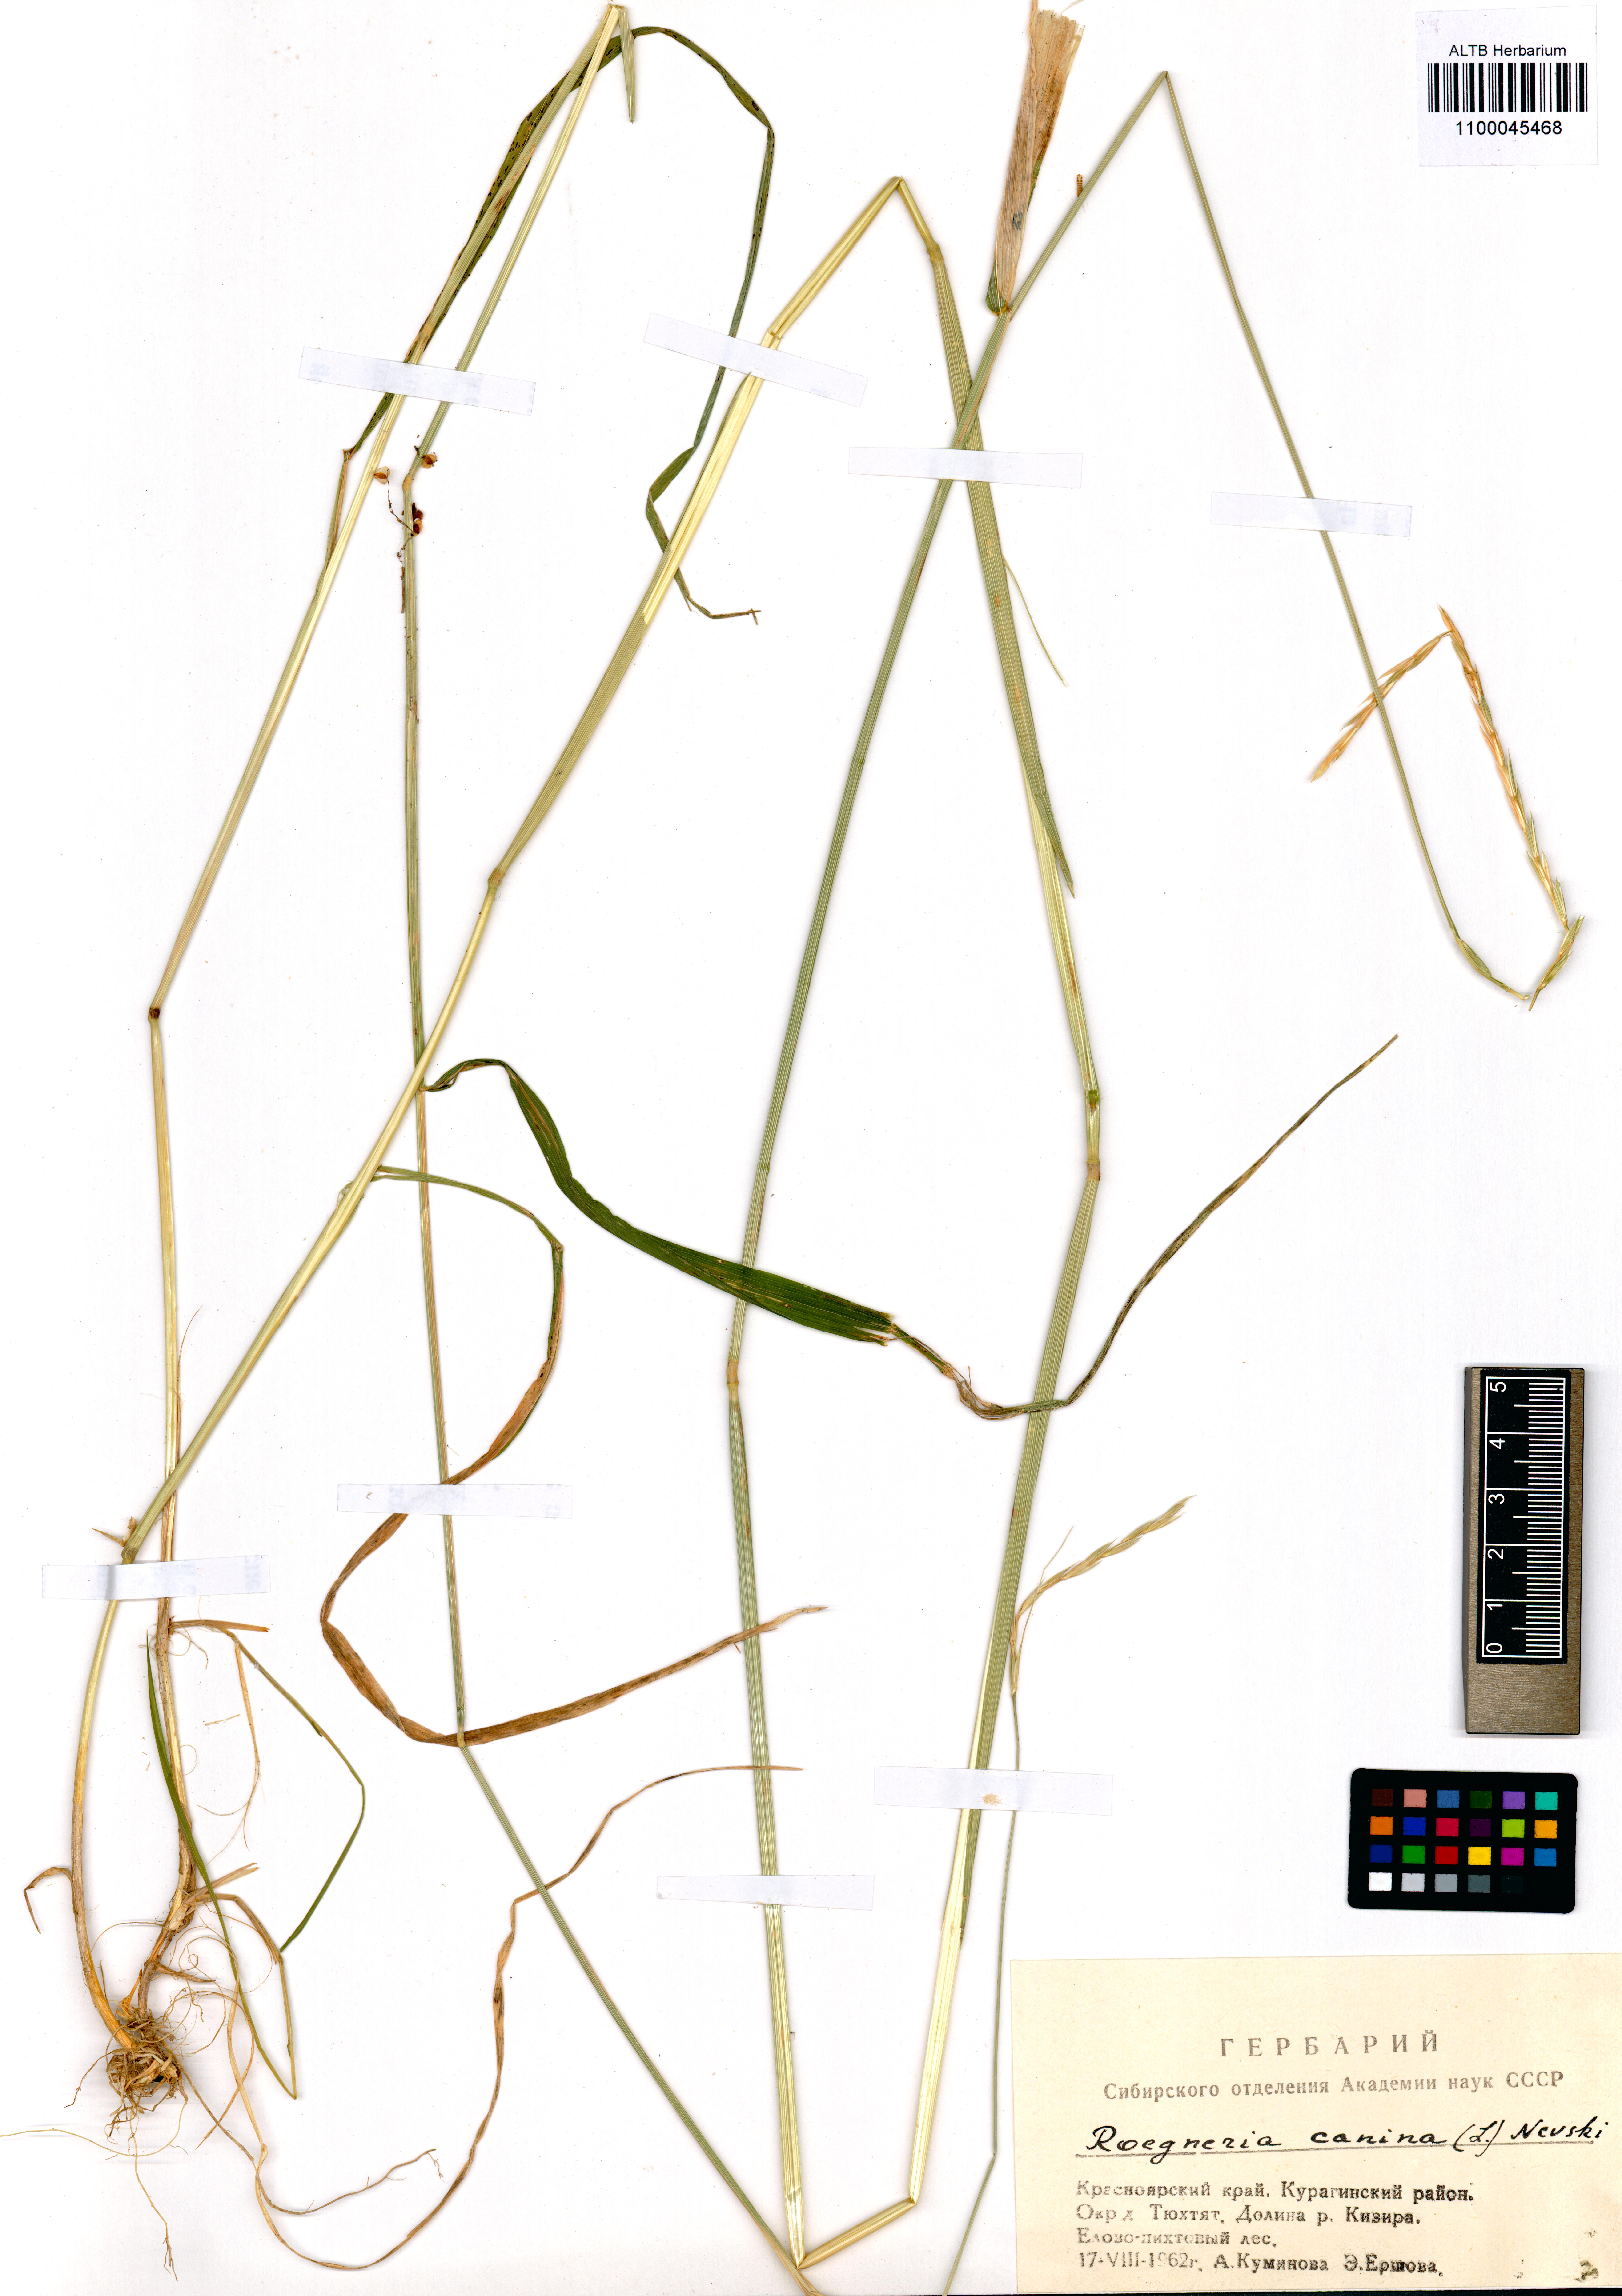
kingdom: Plantae
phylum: Tracheophyta
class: Liliopsida
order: Poales
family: Poaceae
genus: Elymus
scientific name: Elymus caninus
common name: Bearded couch
